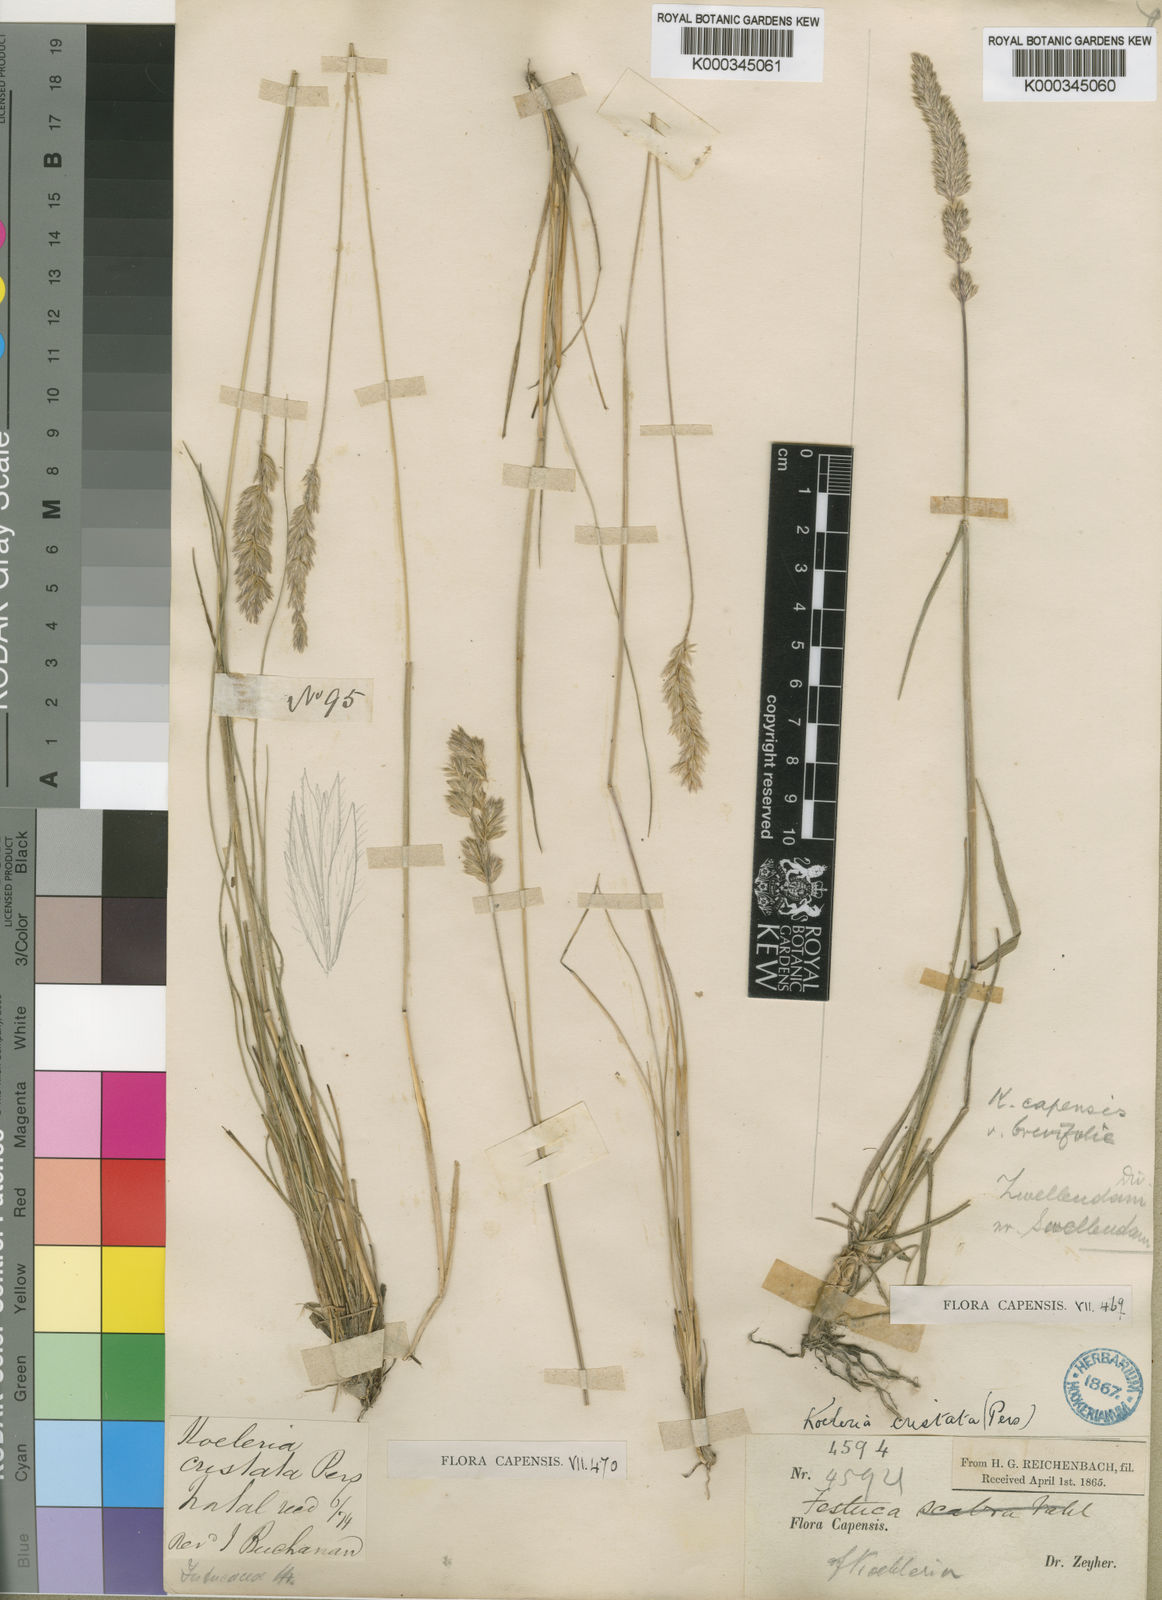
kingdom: Plantae
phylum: Tracheophyta
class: Liliopsida
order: Poales
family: Poaceae
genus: Koeleria
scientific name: Koeleria capensis
